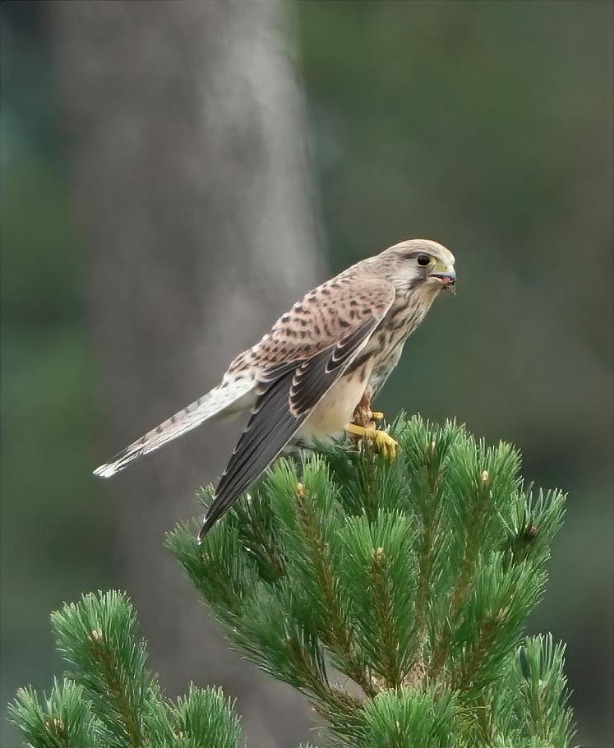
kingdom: Animalia
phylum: Chordata
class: Aves
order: Falconiformes
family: Falconidae
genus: Falco
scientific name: Falco tinnunculus
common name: Tårnfalk
